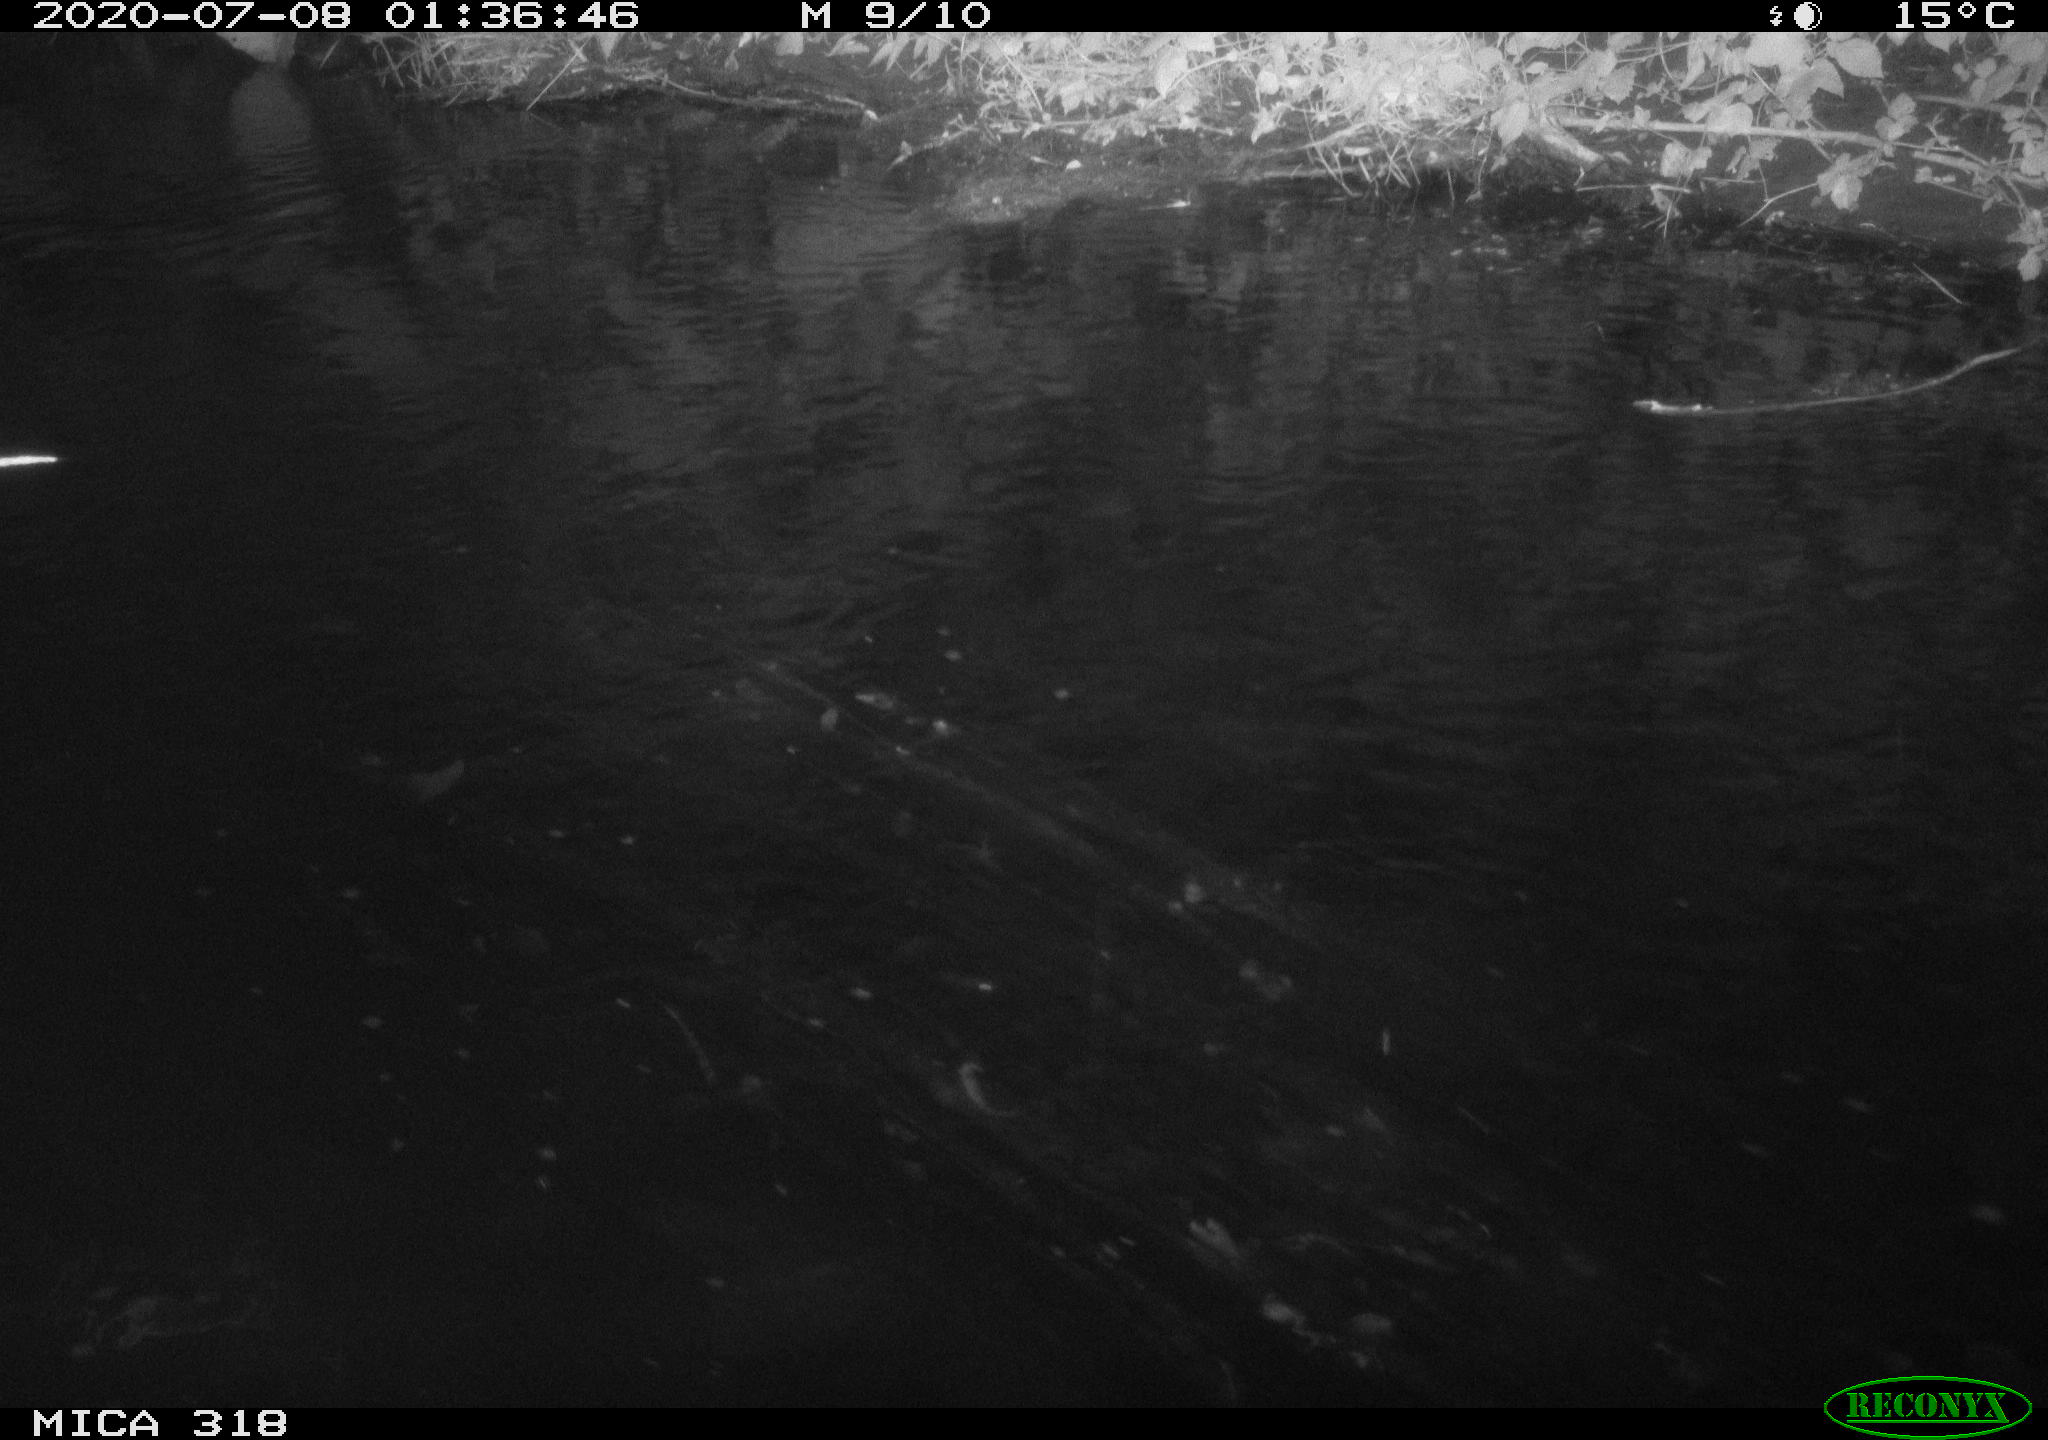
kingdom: Animalia
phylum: Chordata
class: Aves
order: Anseriformes
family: Anatidae
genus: Mareca
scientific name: Mareca strepera
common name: Gadwall
